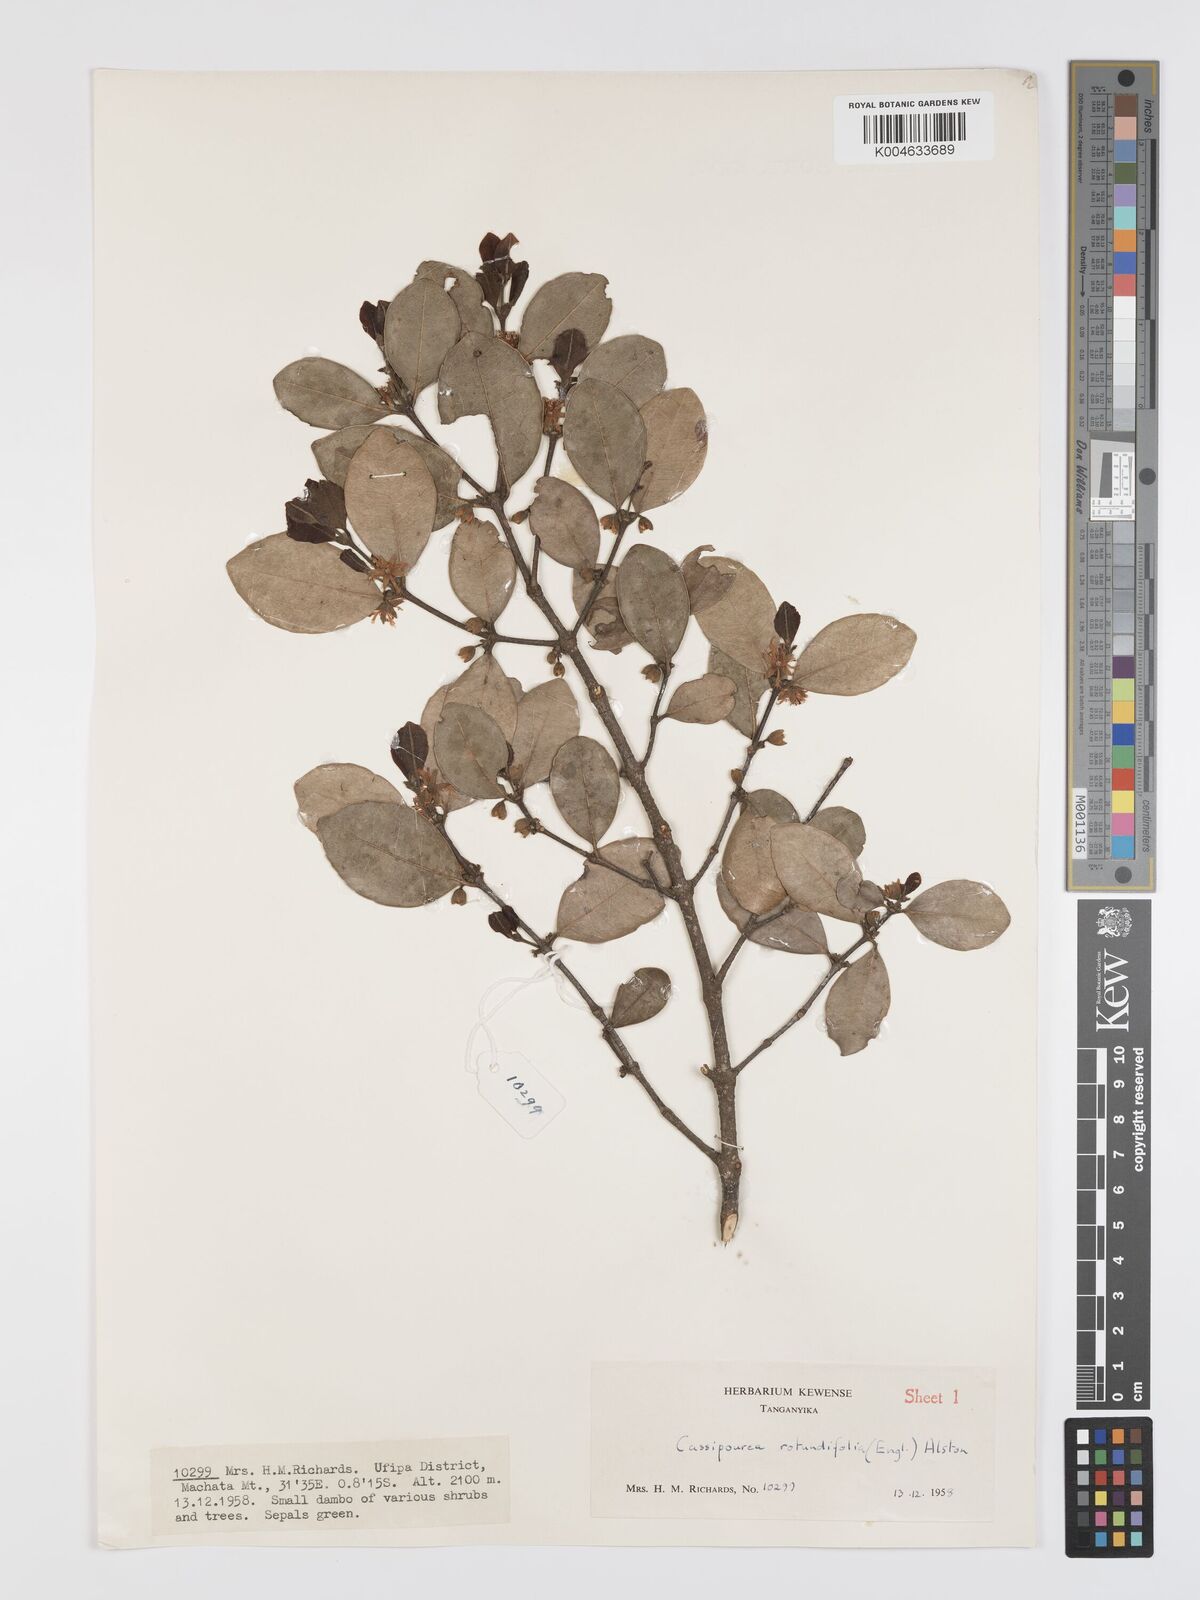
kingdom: Plantae
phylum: Tracheophyta
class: Magnoliopsida
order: Malpighiales
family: Rhizophoraceae
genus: Cassipourea
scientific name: Cassipourea rotundifolia
